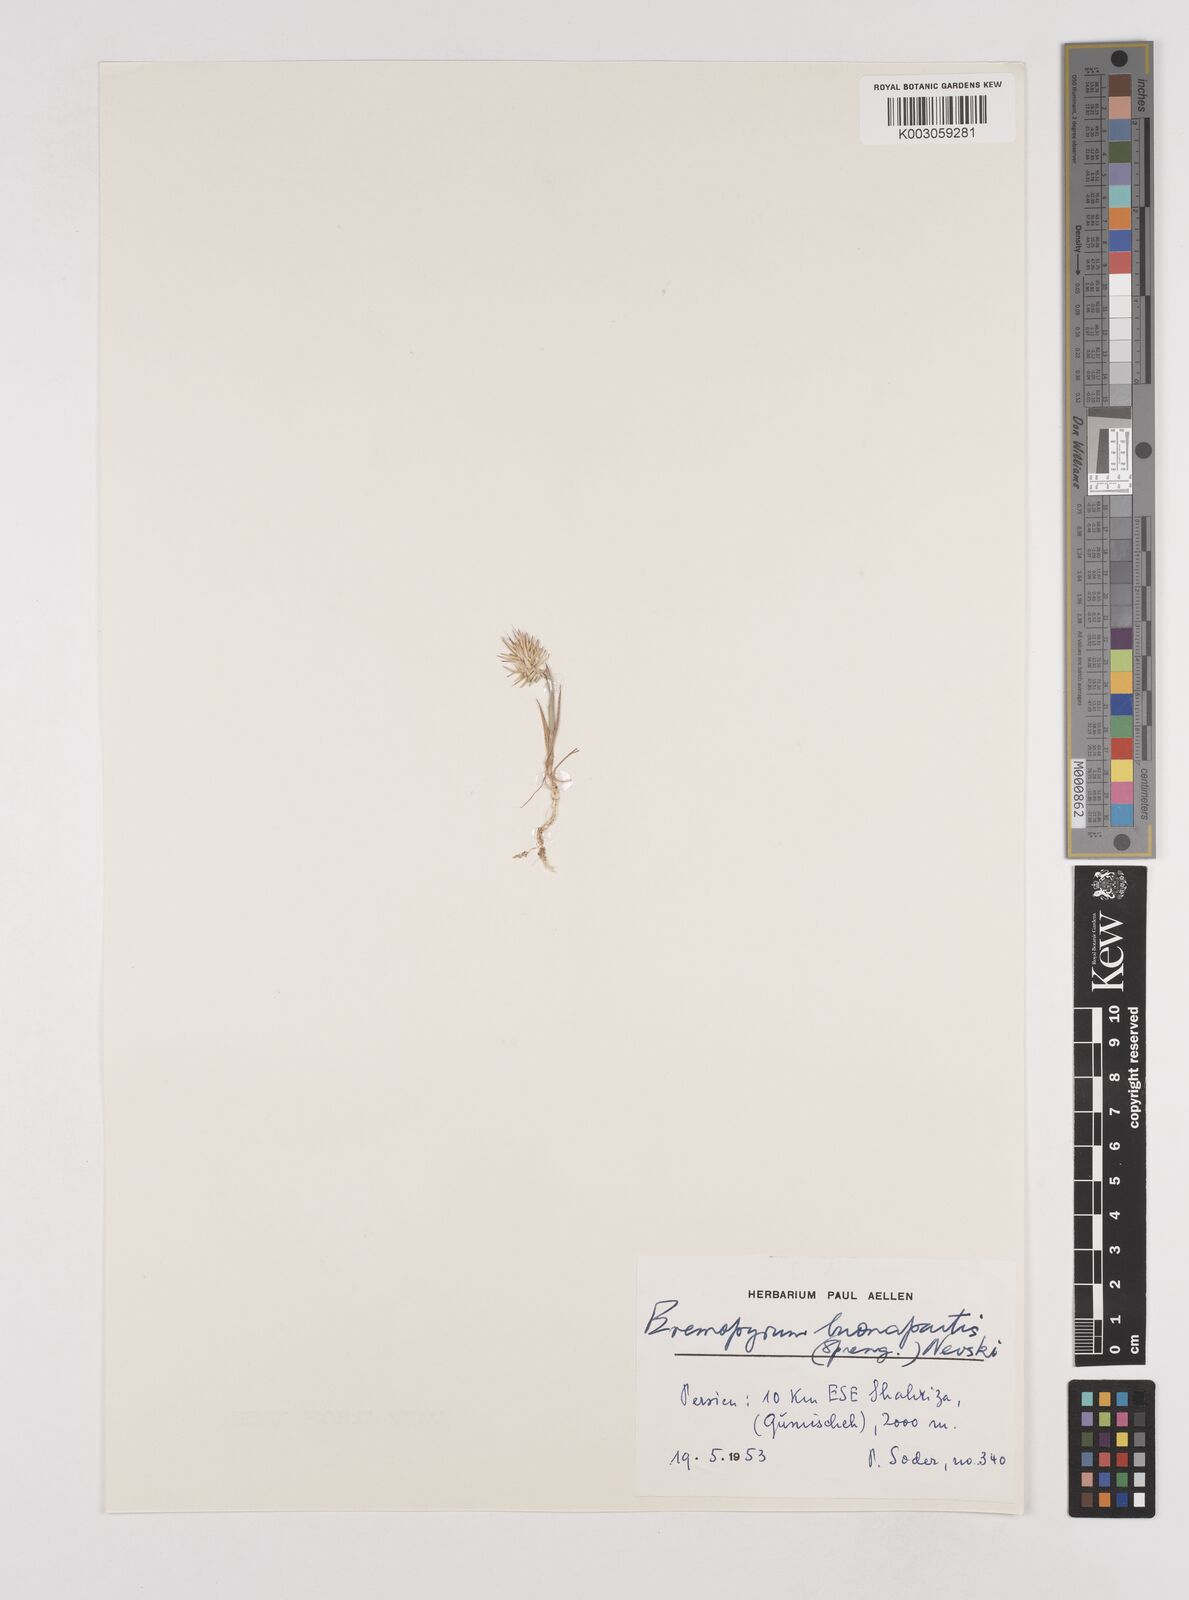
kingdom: Plantae
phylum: Tracheophyta
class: Liliopsida
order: Poales
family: Poaceae
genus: Eremopyrum
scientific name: Eremopyrum bonaepartis
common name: Tapertip false wheatgrass
